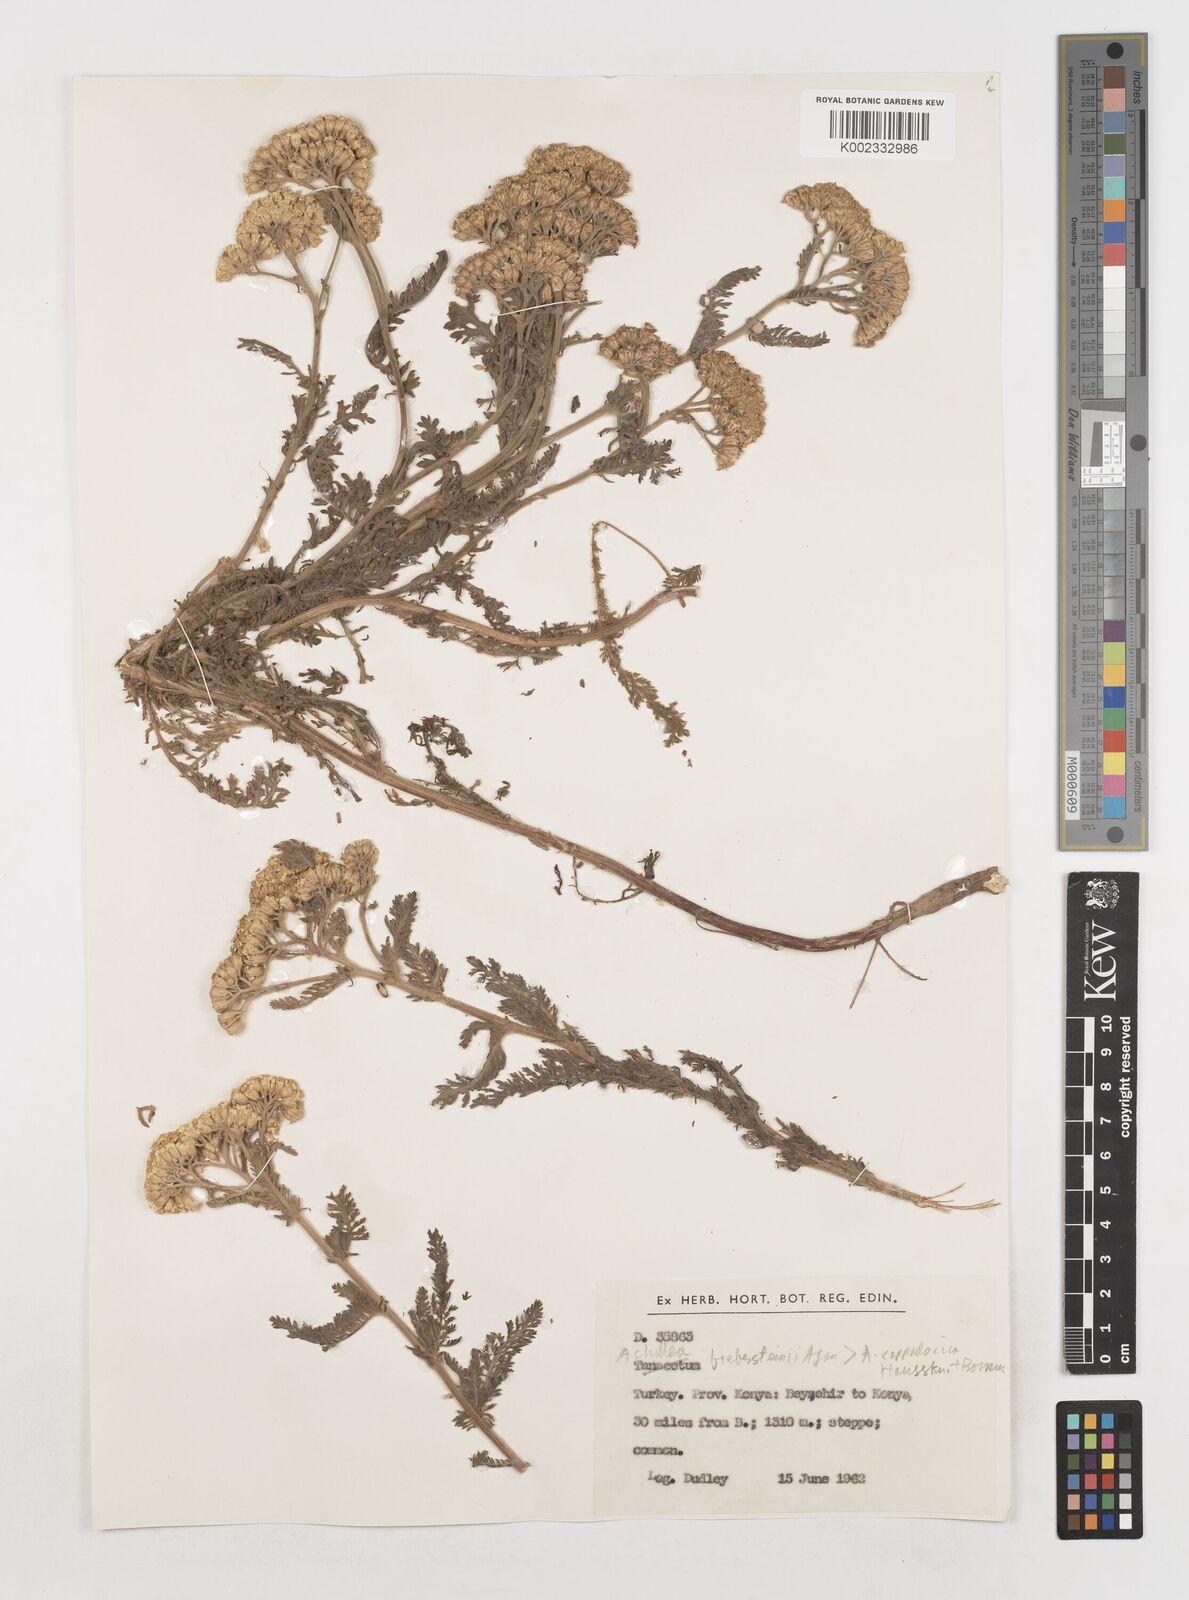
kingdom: Plantae
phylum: Tracheophyta
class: Magnoliopsida
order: Asterales
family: Asteraceae
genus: Achillea
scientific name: Achillea arabica
